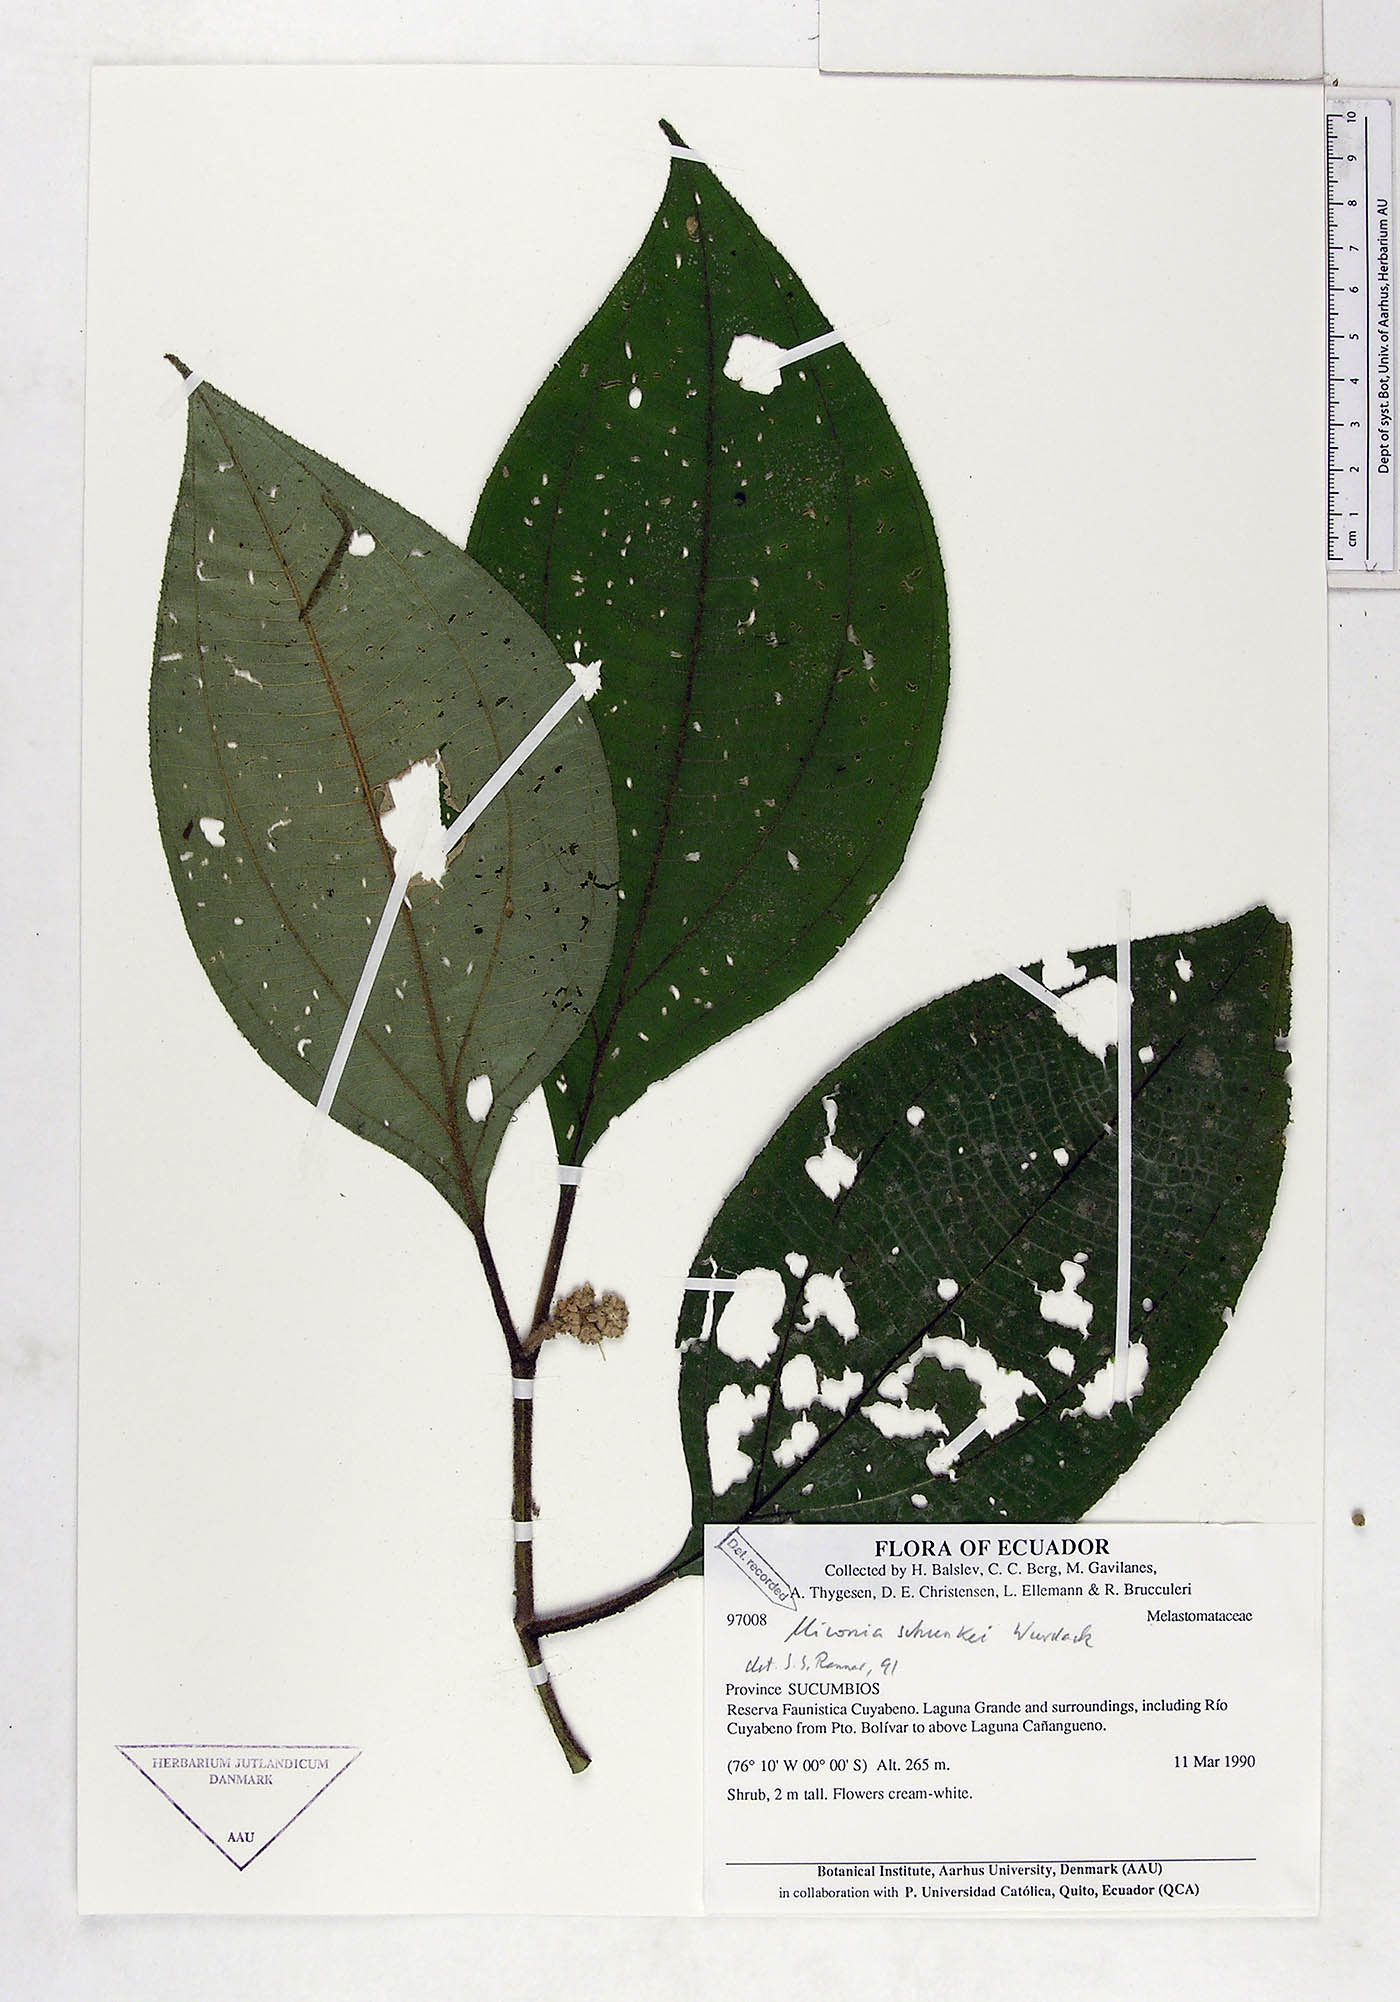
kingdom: Plantae
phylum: Tracheophyta
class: Magnoliopsida
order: Myrtales
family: Melastomataceae
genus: Miconia
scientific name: Miconia schunkei
